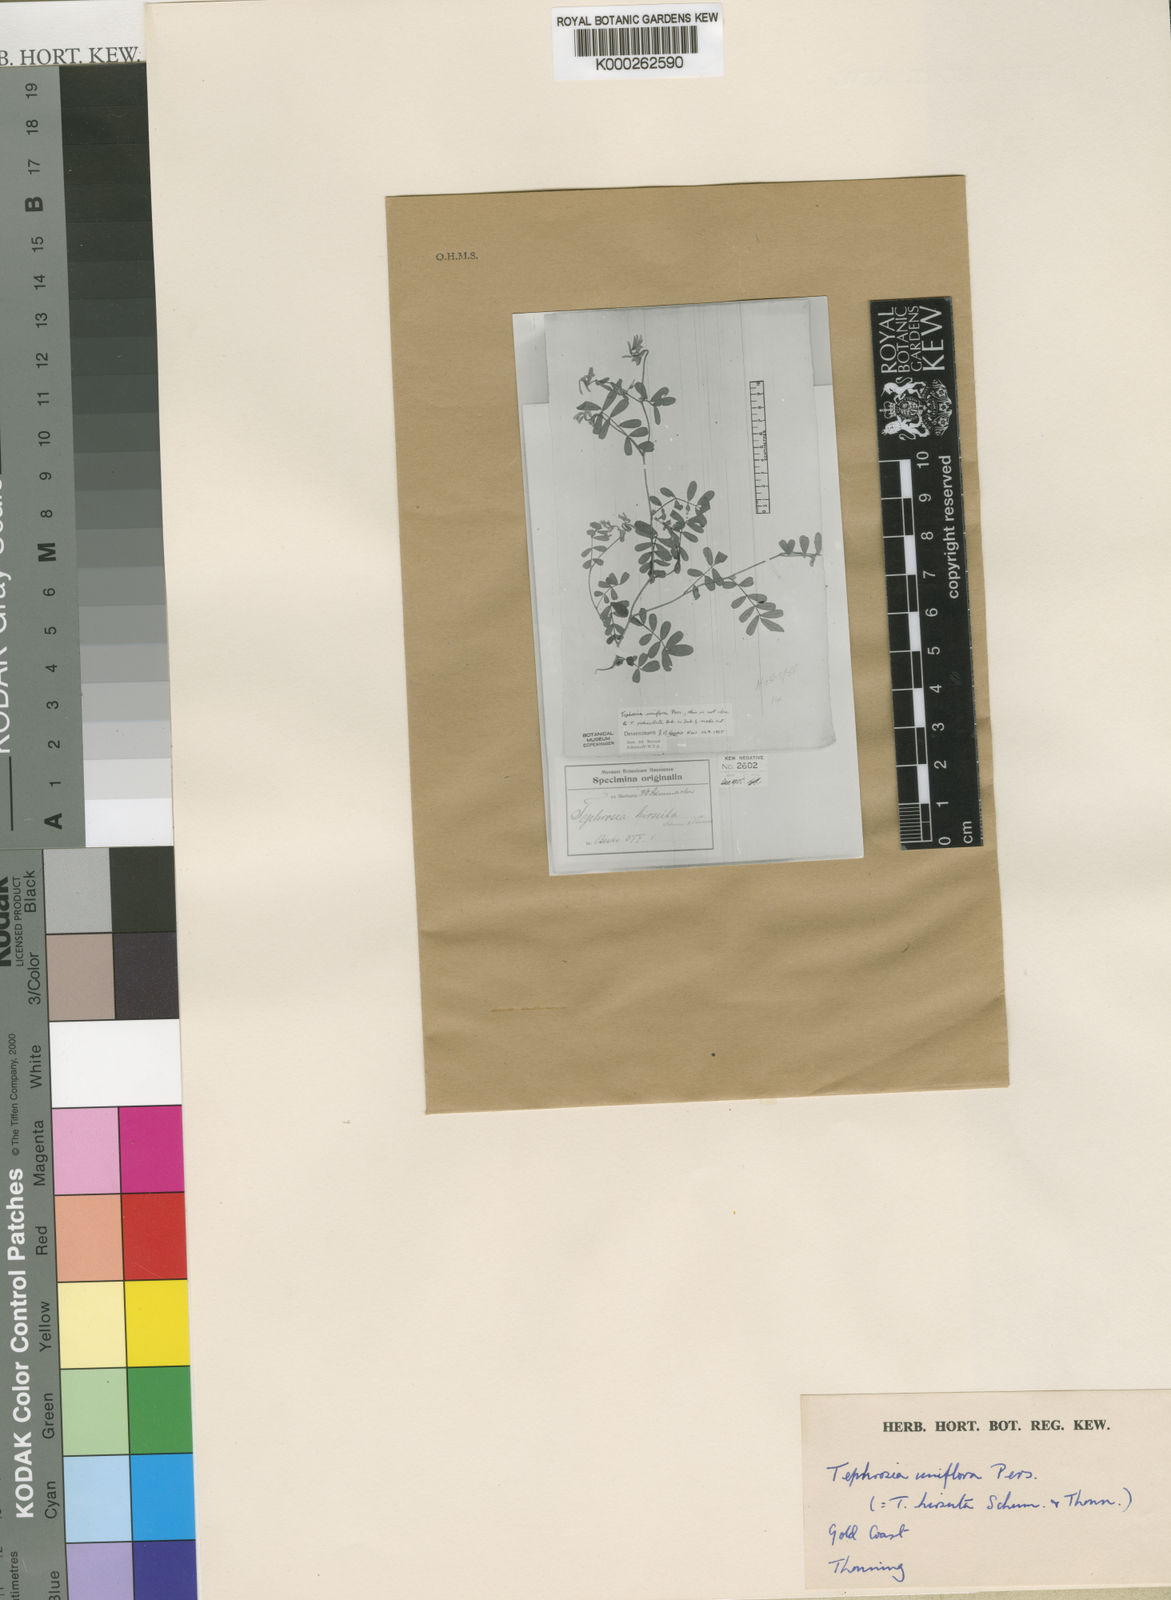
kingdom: Plantae
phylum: Tracheophyta
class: Magnoliopsida
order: Fabales
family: Fabaceae
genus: Tephrosia
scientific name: Tephrosia uniflora
